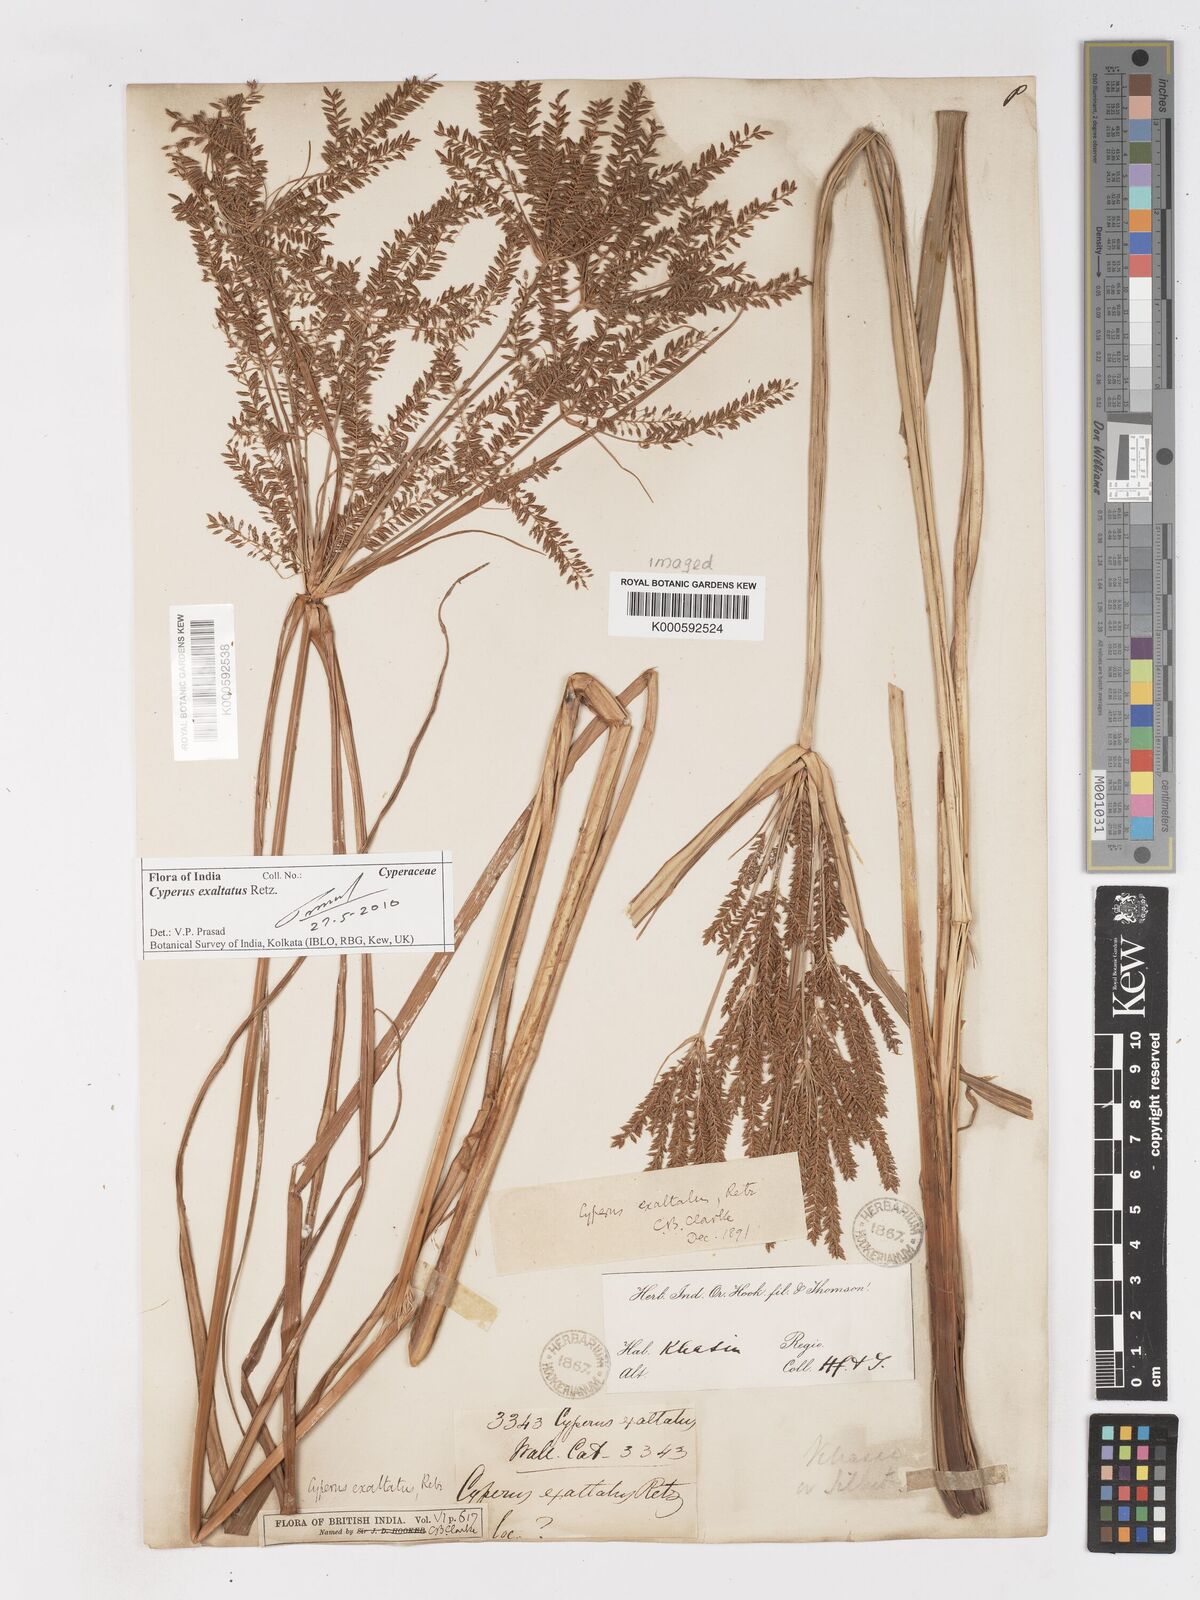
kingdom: Plantae
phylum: Tracheophyta
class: Liliopsida
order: Poales
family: Cyperaceae
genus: Cyperus
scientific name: Cyperus exaltatus
